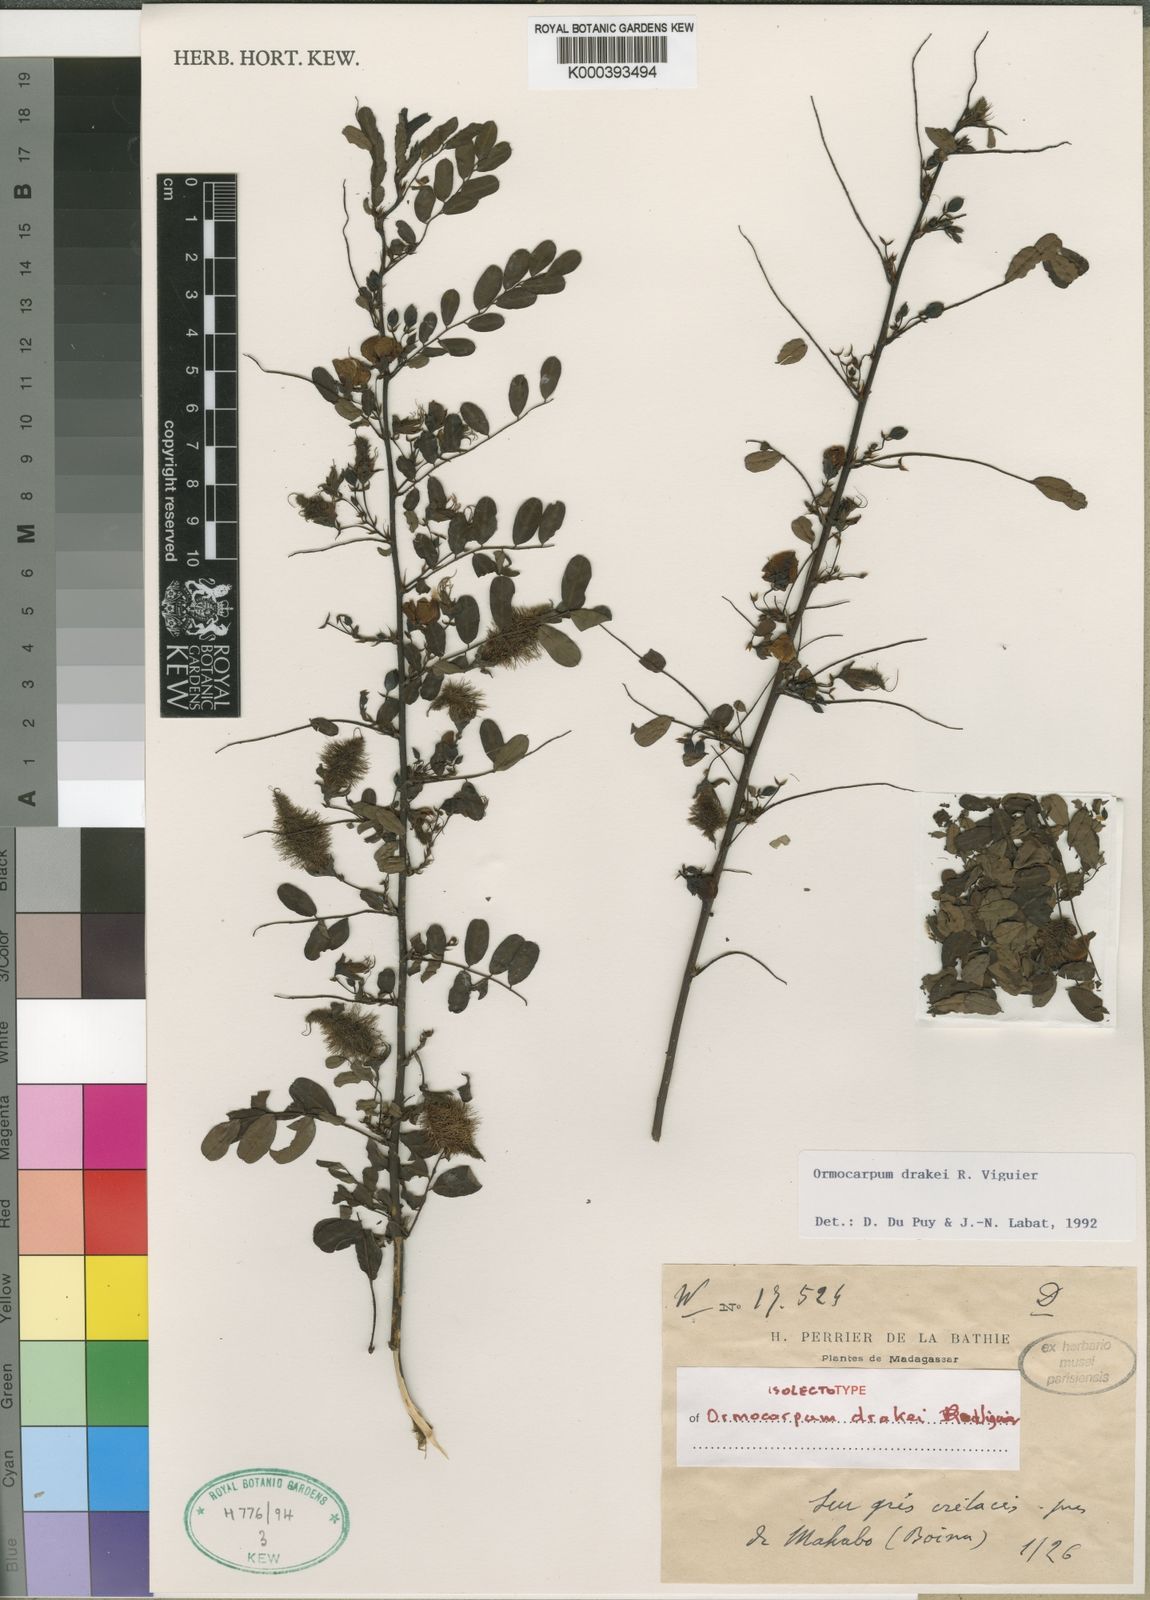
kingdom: Plantae
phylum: Tracheophyta
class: Magnoliopsida
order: Fabales
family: Fabaceae
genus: Ormocarpum
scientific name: Ormocarpum drakei
